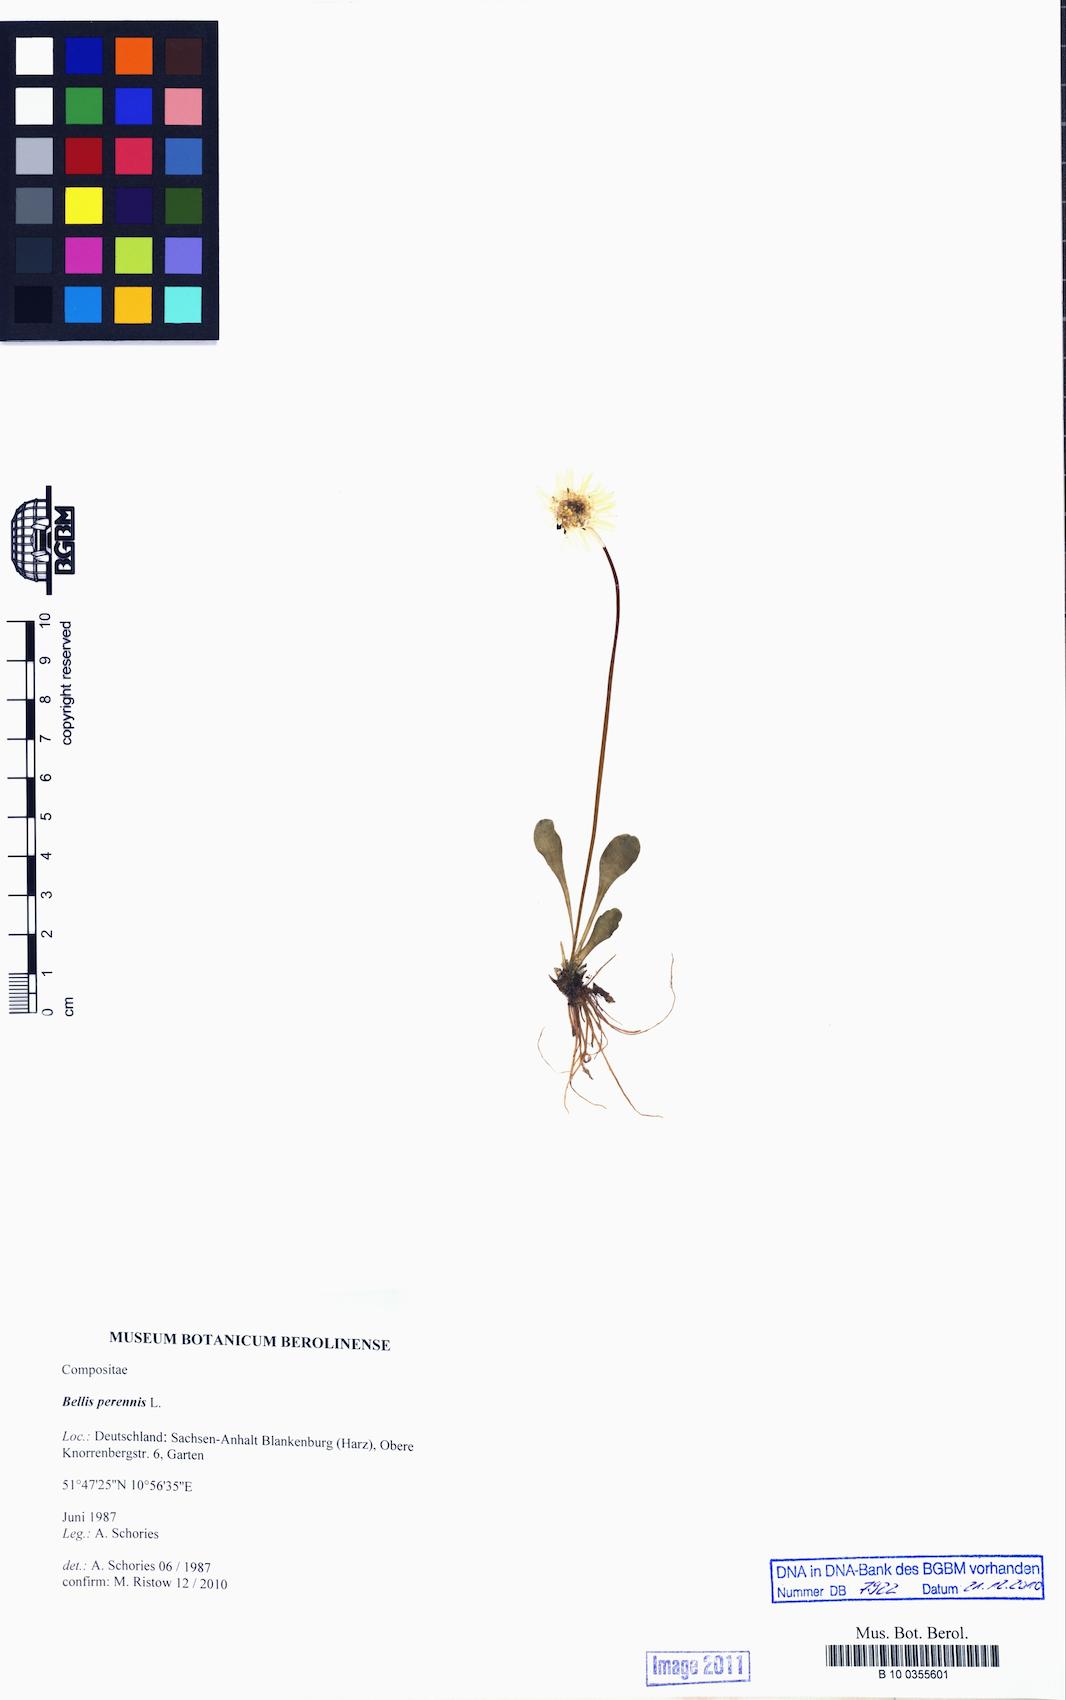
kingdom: Plantae
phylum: Tracheophyta
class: Magnoliopsida
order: Asterales
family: Asteraceae
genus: Bellis
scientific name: Bellis perennis
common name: Lawndaisy
